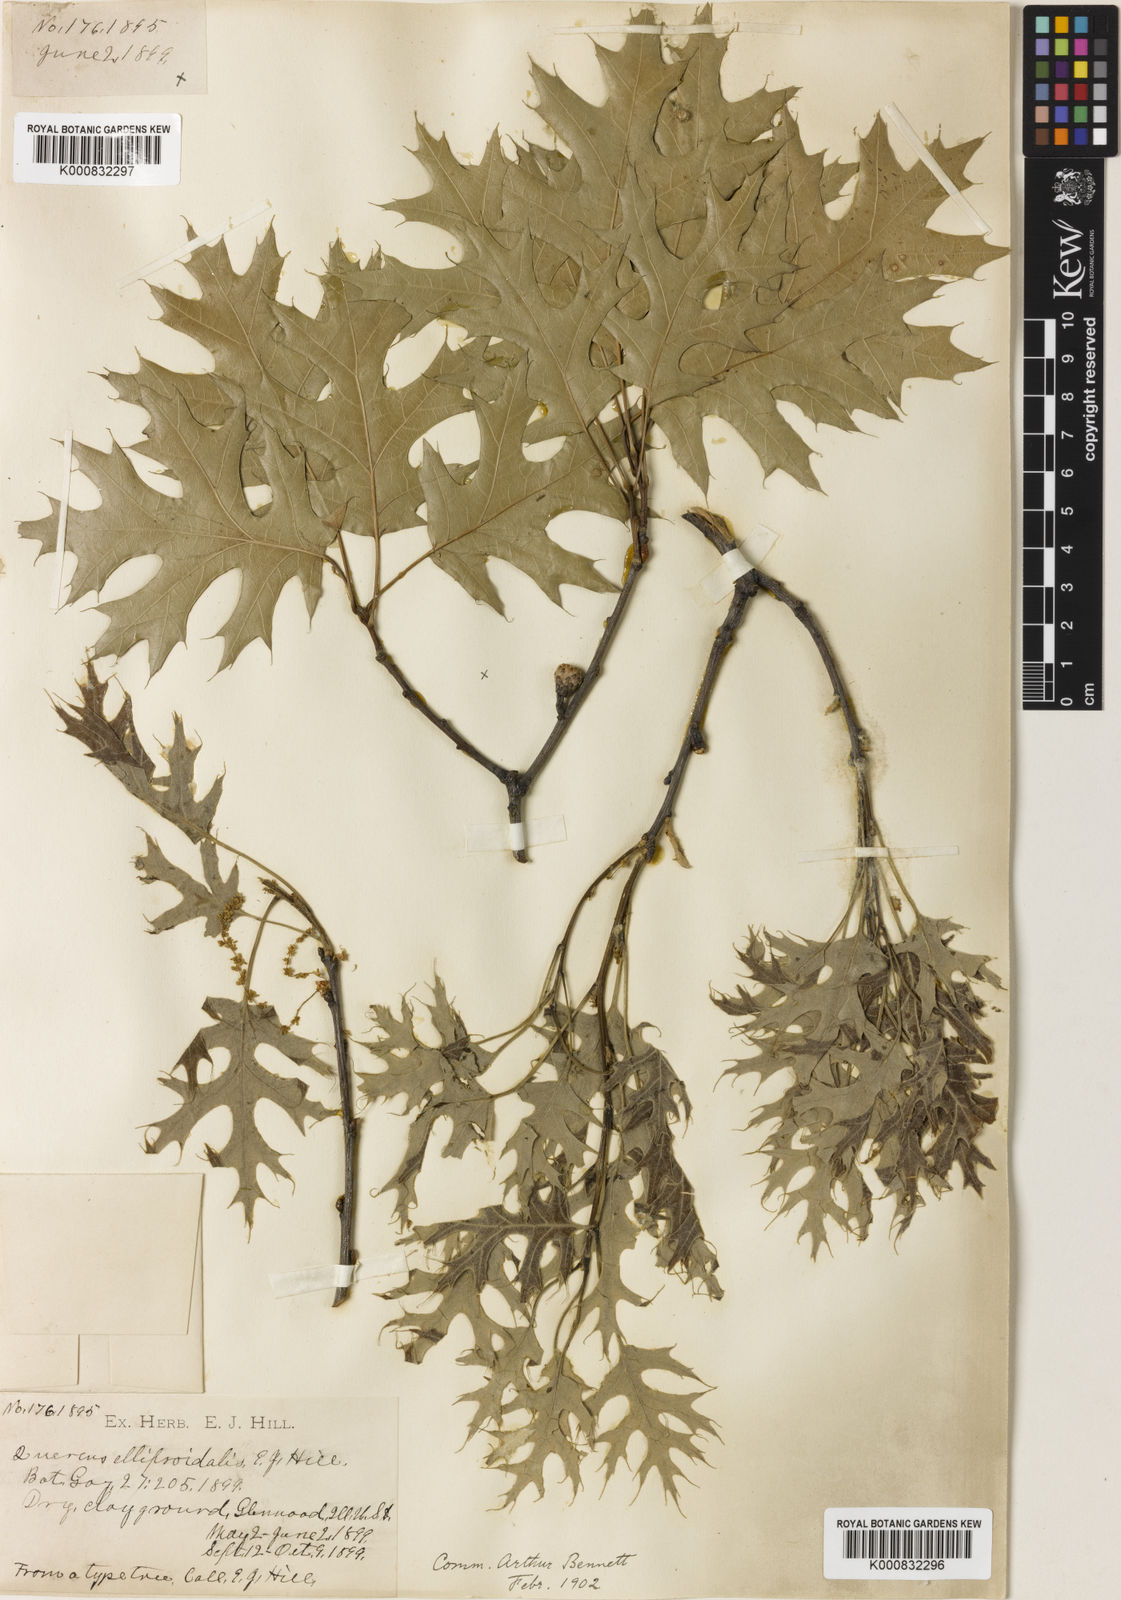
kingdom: Plantae
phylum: Tracheophyta
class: Magnoliopsida
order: Fagales
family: Fagaceae
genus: Quercus
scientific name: Quercus ellipsoidalis
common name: Hill's oak
